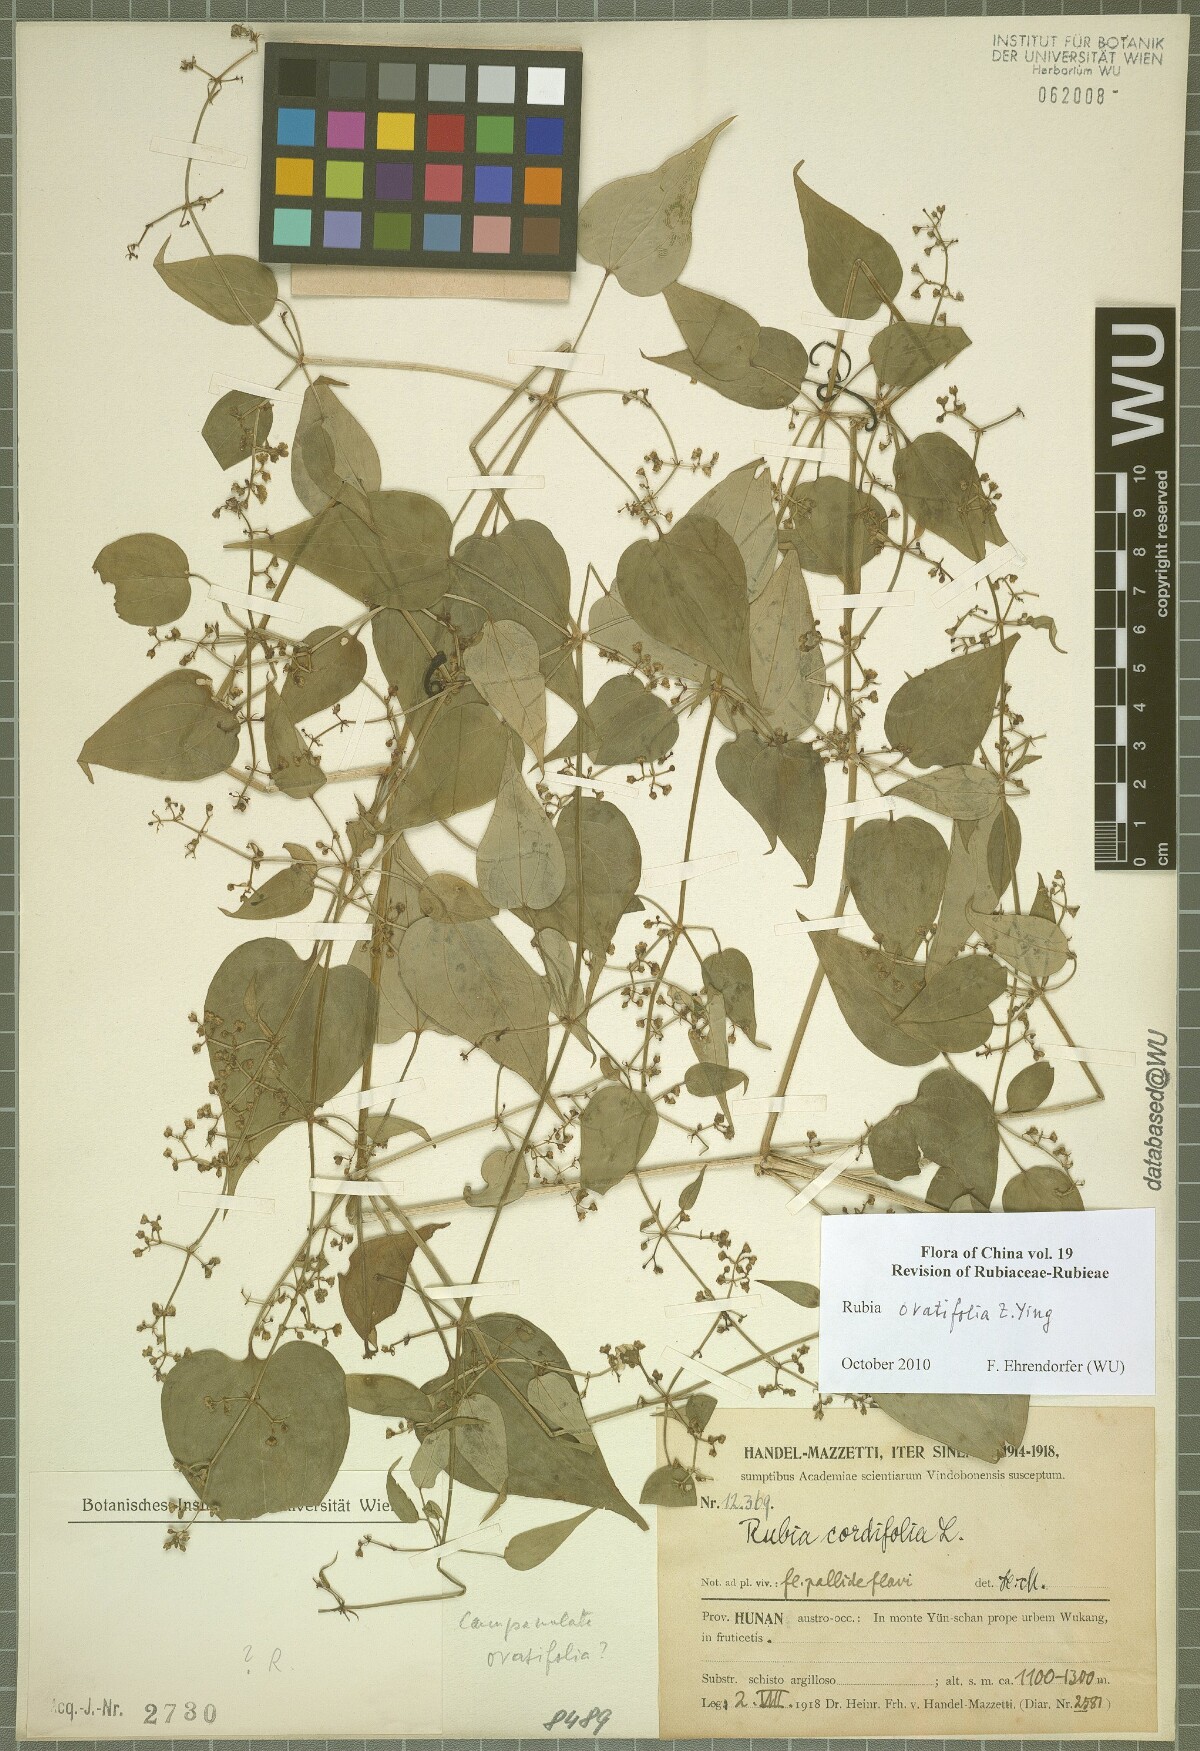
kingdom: Plantae
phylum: Tracheophyta
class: Magnoliopsida
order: Gentianales
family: Rubiaceae
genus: Rubia
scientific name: Rubia ovatifolia
